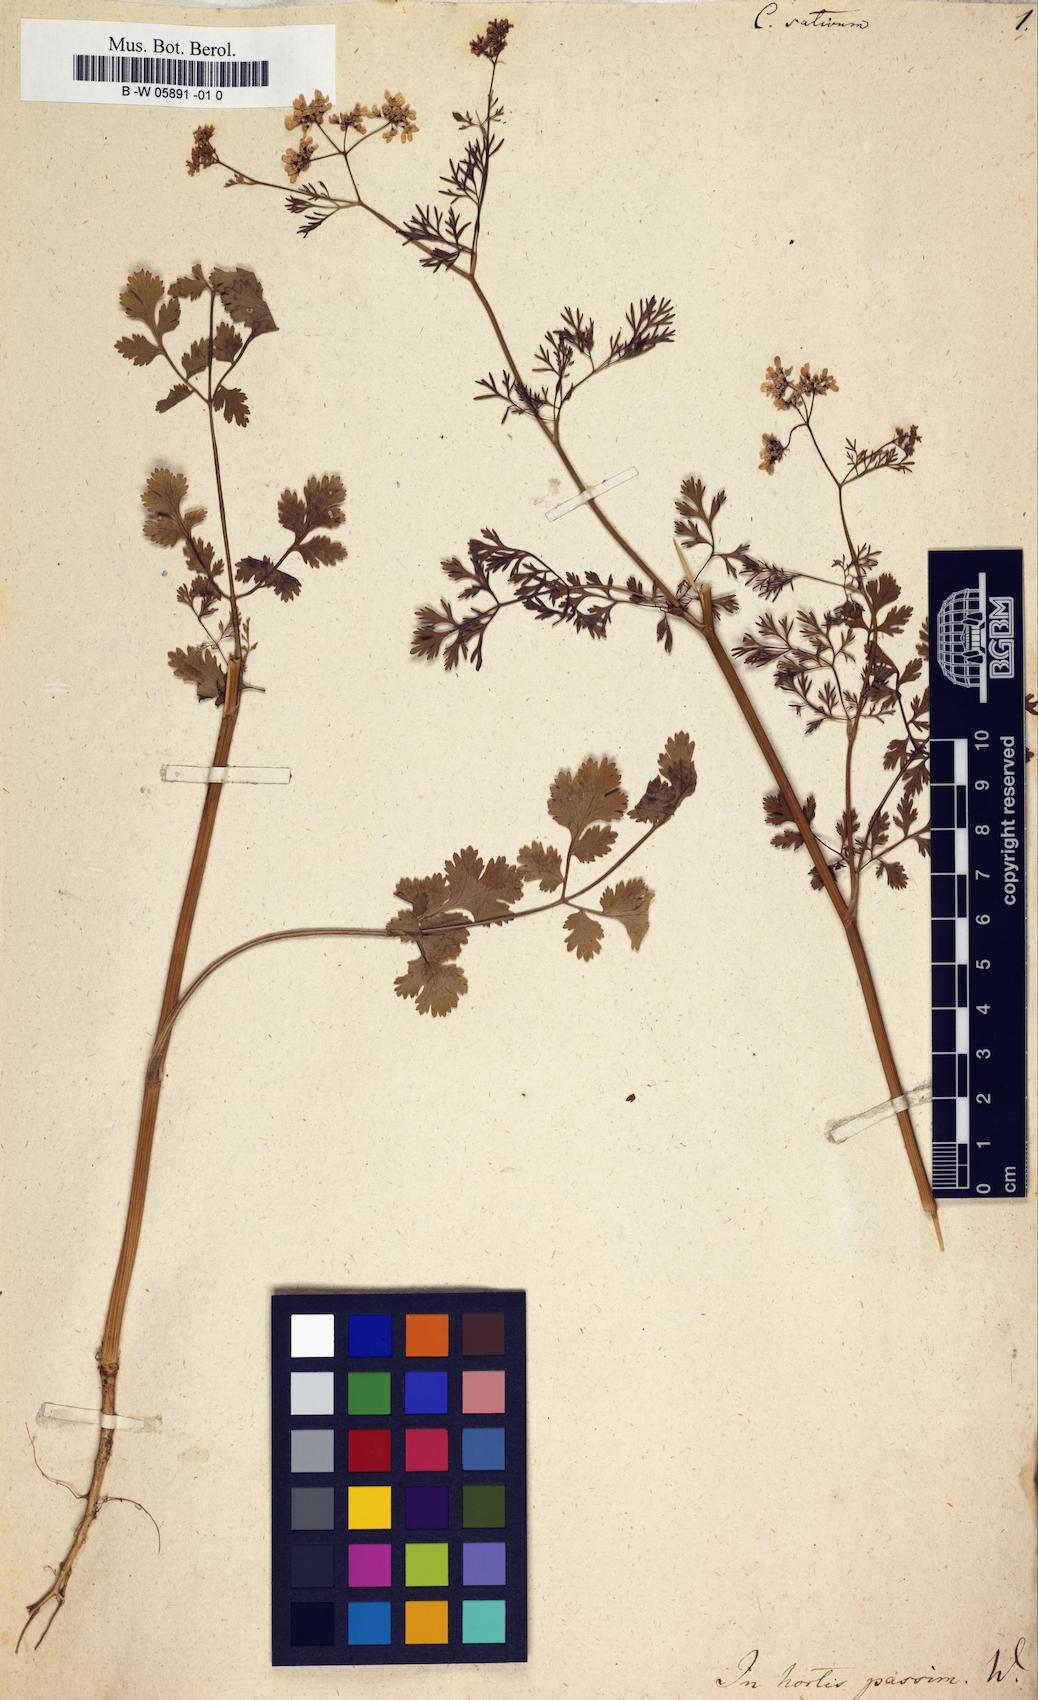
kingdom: Plantae
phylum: Tracheophyta
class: Magnoliopsida
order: Apiales
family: Apiaceae
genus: Coriandrum
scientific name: Coriandrum sativum
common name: Coriander
